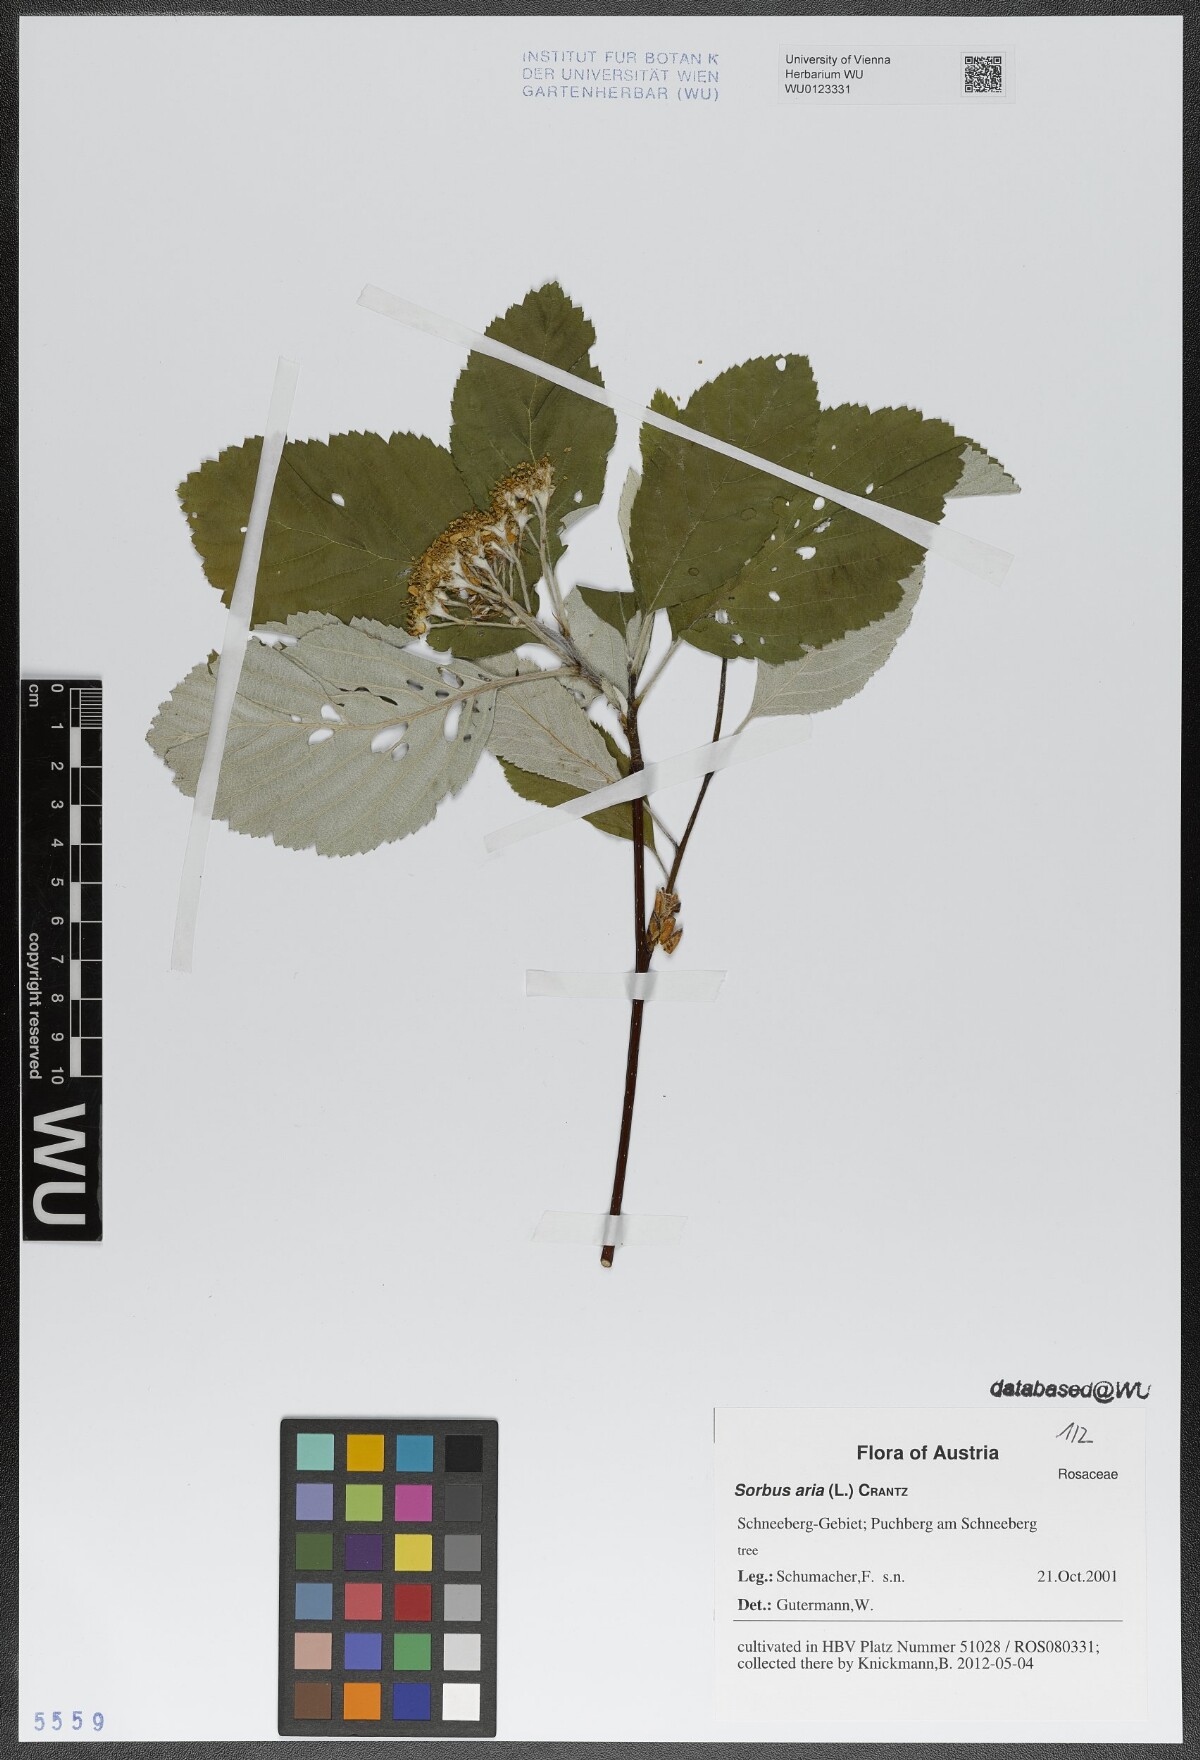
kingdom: Plantae
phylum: Tracheophyta
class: Magnoliopsida
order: Rosales
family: Rosaceae
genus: Aria
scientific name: Aria edulis
